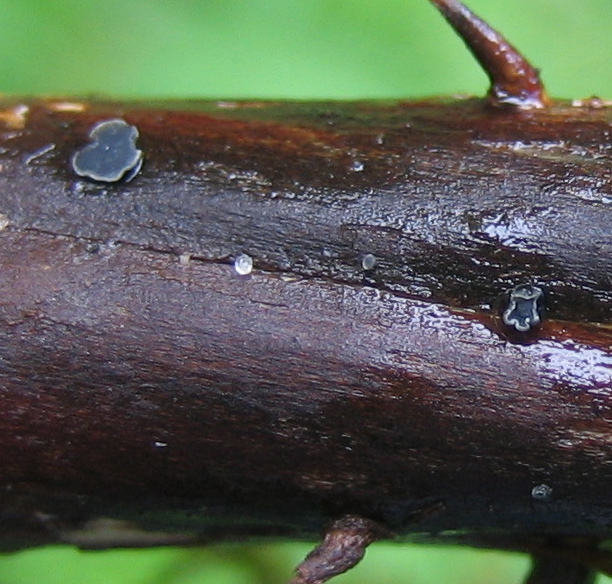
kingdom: Fungi
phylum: Ascomycota
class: Leotiomycetes
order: Helotiales
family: Dermateaceae
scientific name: Dermateaceae
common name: gråskivefamilien
